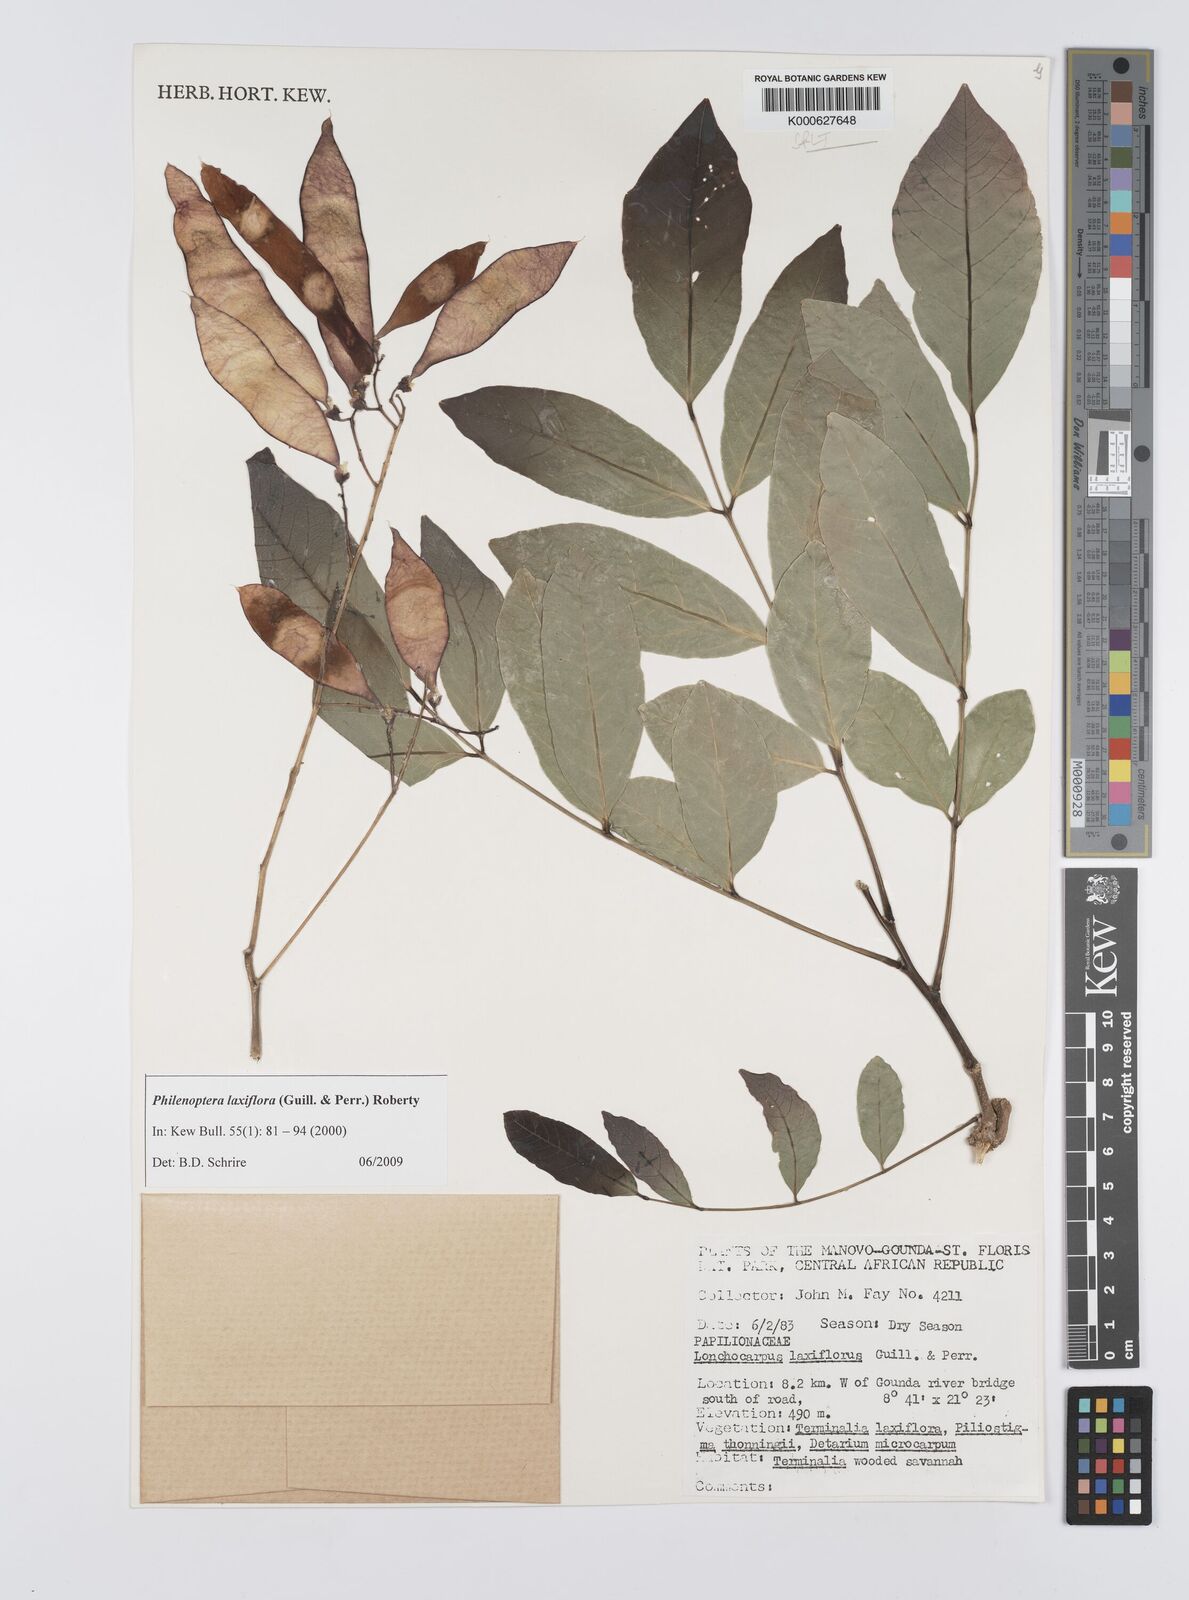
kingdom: Plantae
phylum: Tracheophyta
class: Magnoliopsida
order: Fabales
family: Fabaceae
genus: Philenoptera
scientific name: Philenoptera laxiflora
